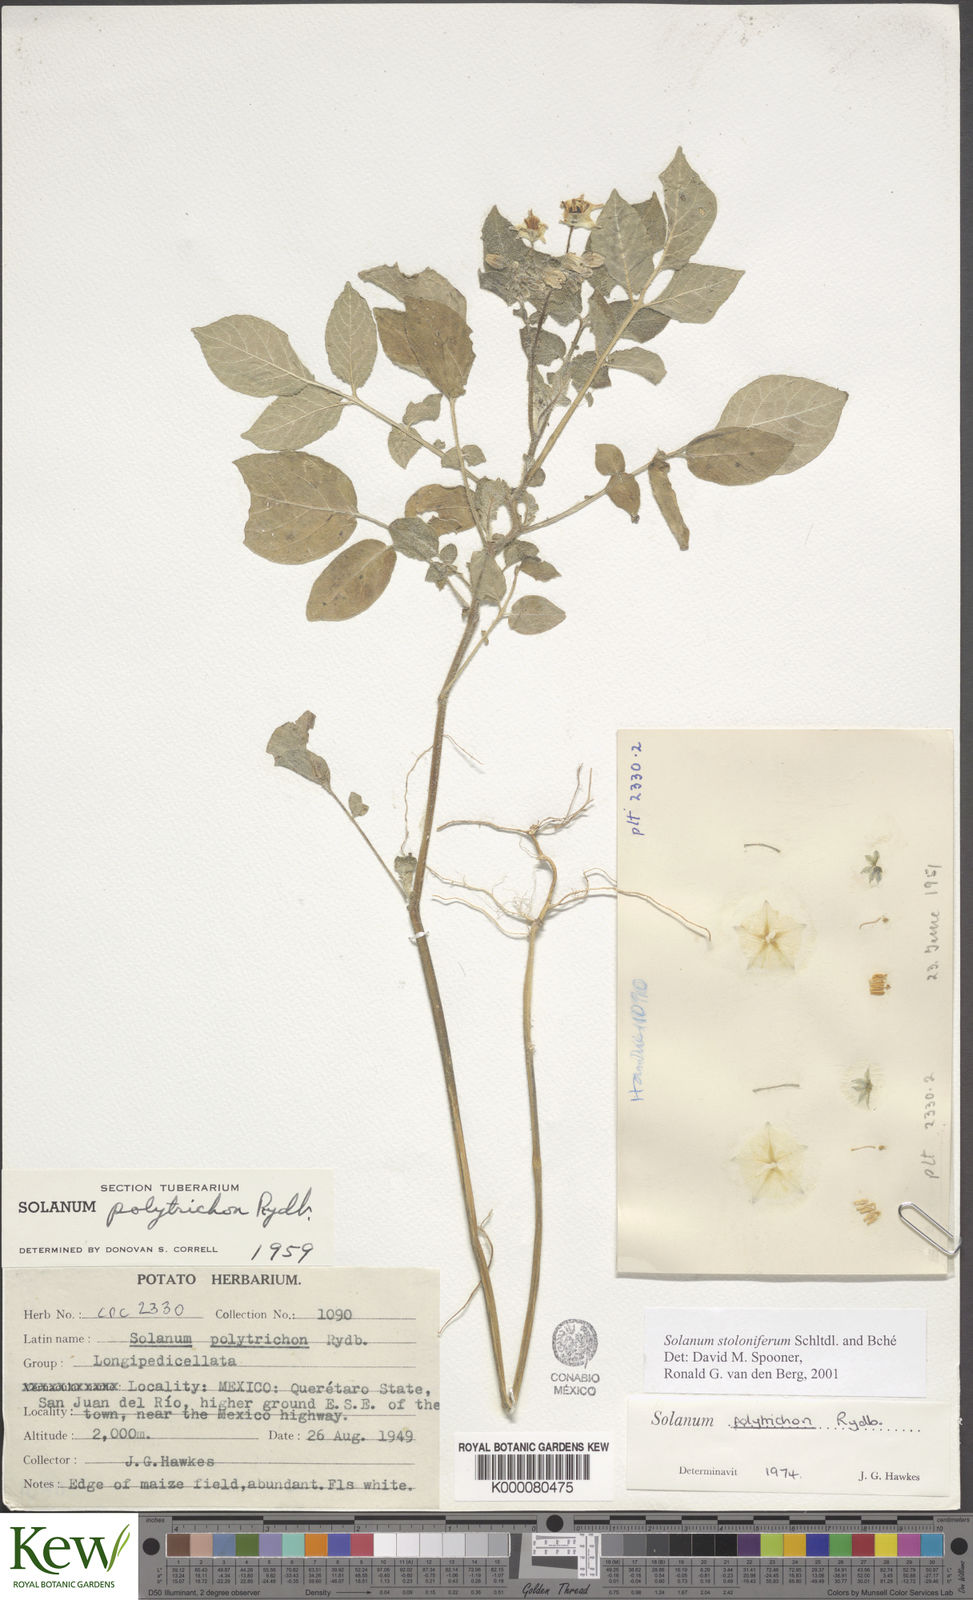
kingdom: Plantae
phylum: Tracheophyta
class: Magnoliopsida
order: Solanales
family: Solanaceae
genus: Solanum
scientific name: Solanum stoloniferum
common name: Fendler's nighshade
